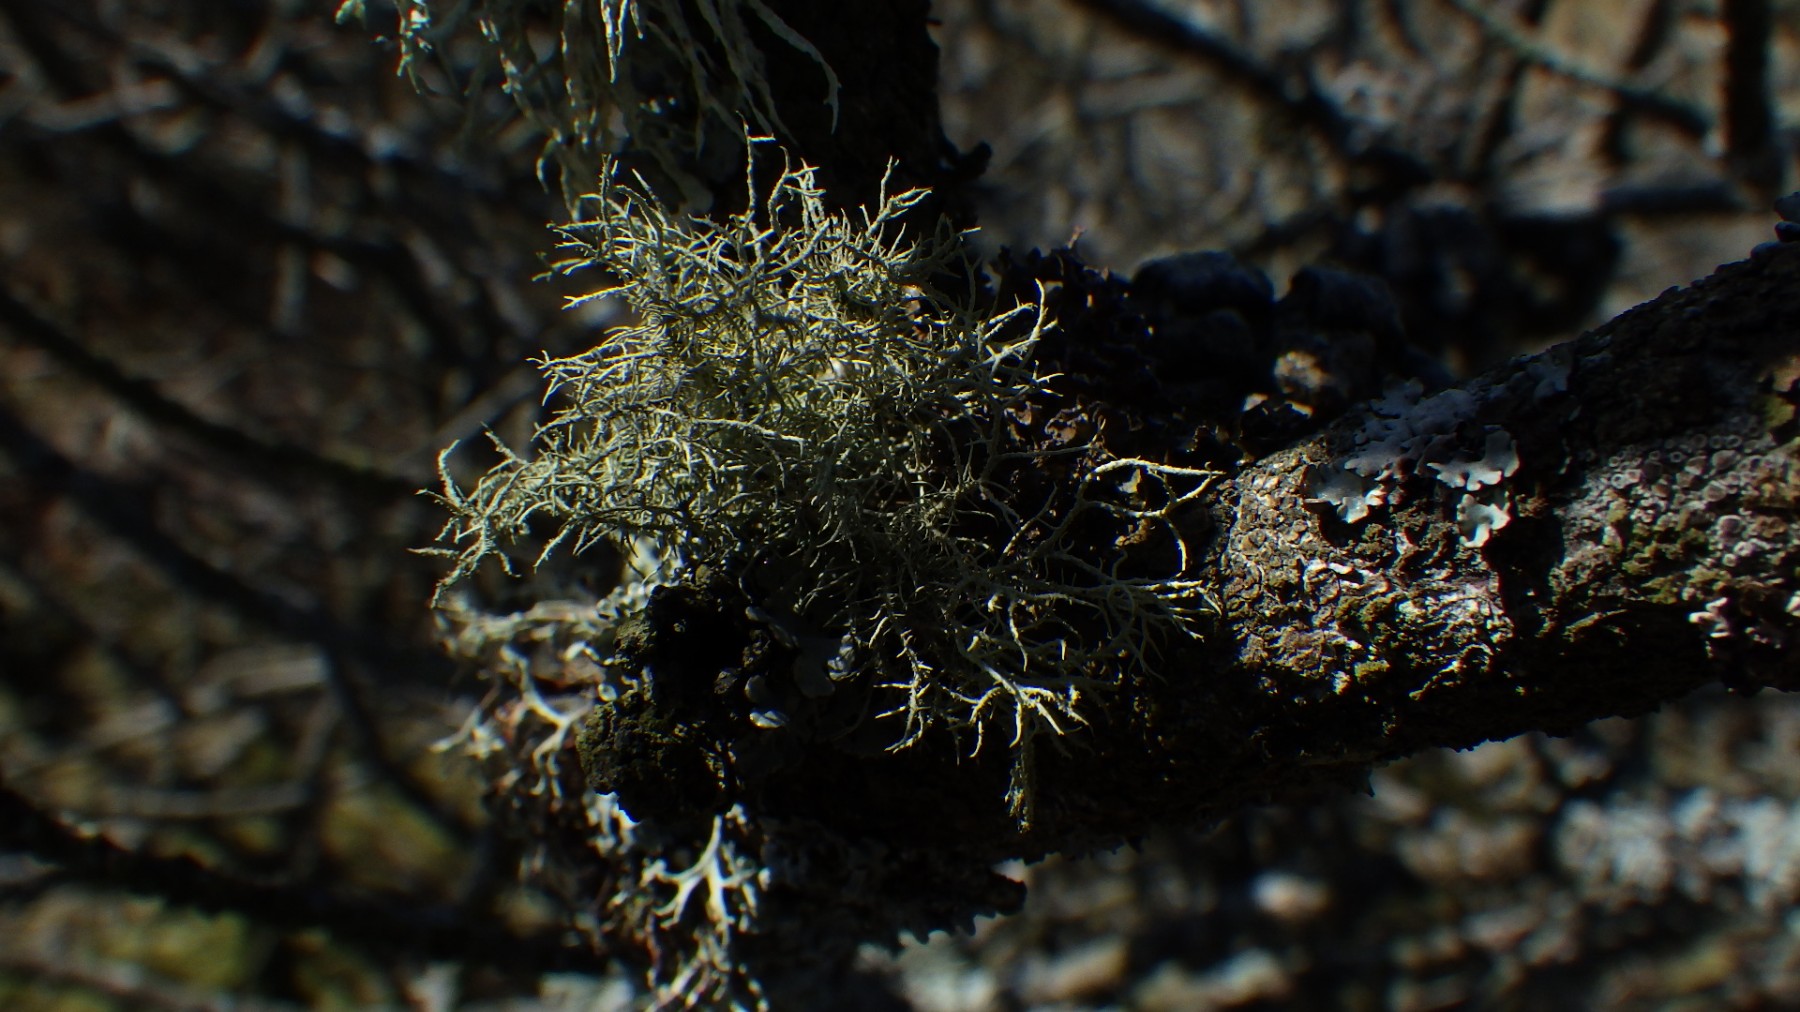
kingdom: Fungi
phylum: Ascomycota
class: Lecanoromycetes
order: Lecanorales
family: Parmeliaceae
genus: Usnea
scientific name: Usnea hirta
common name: liden skæglav
